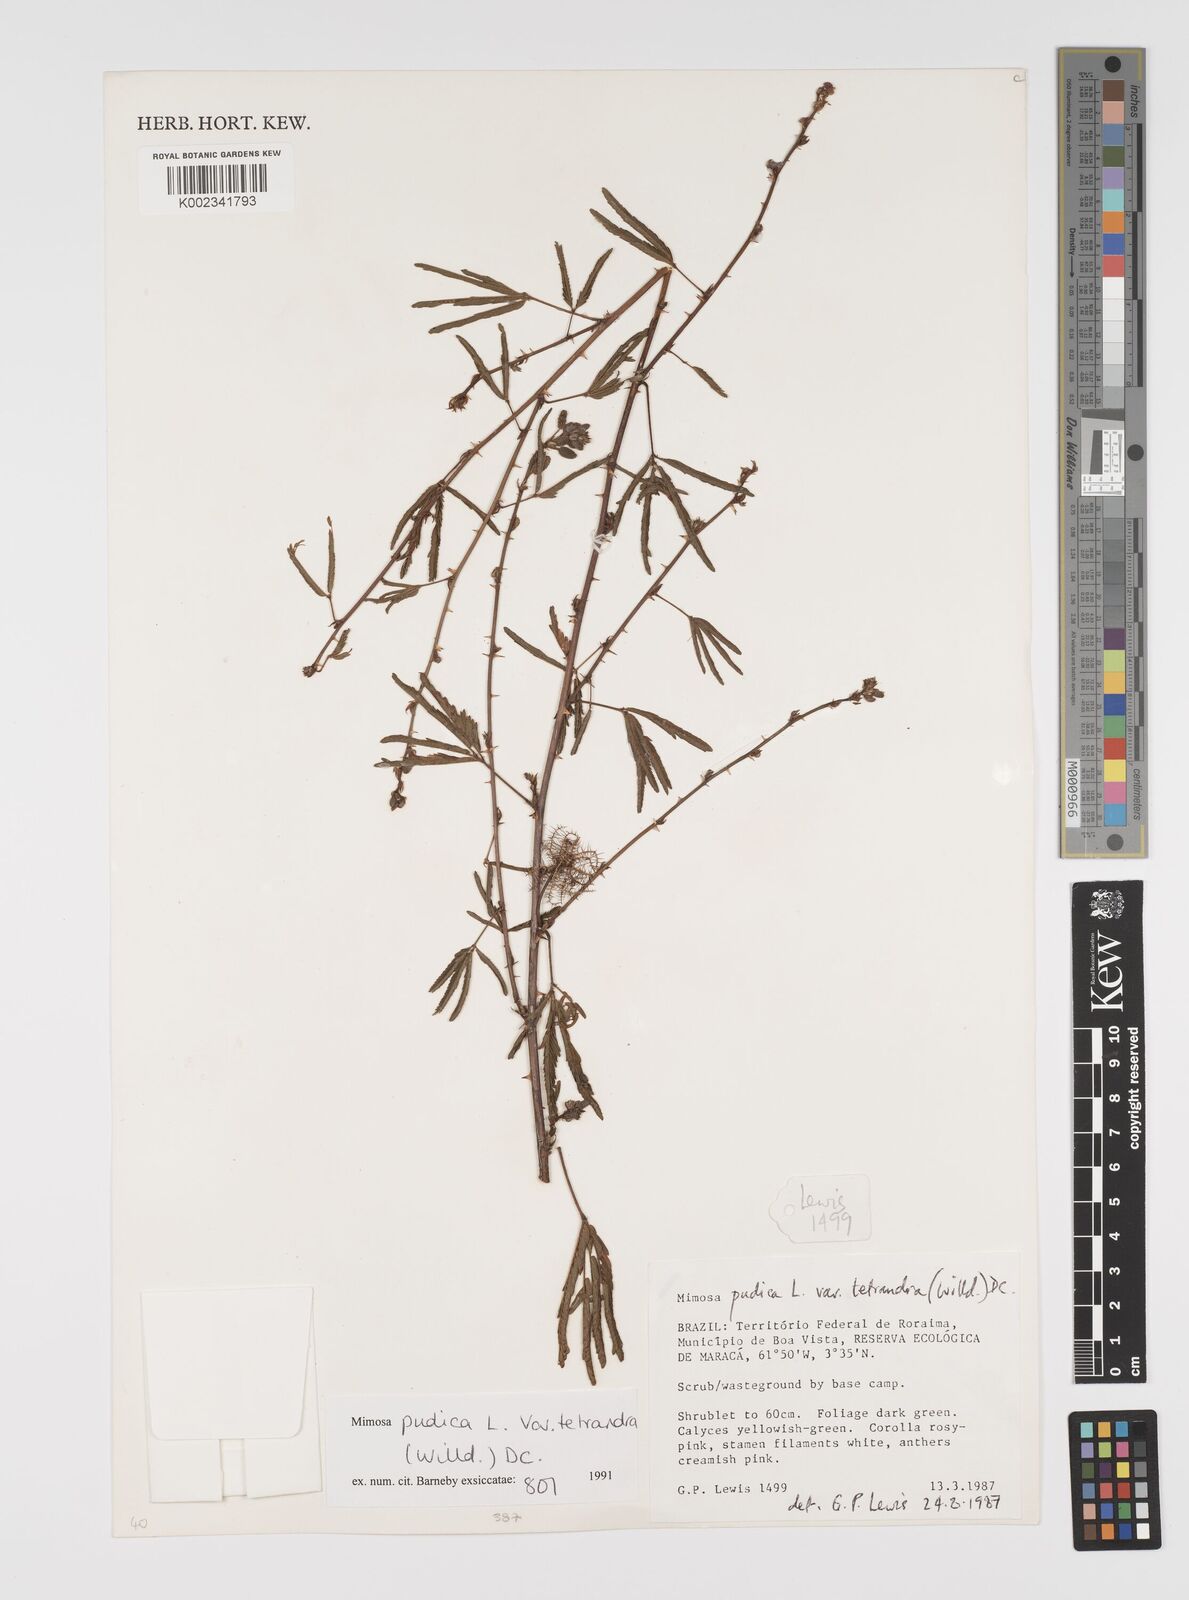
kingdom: Plantae
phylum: Tracheophyta
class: Magnoliopsida
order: Fabales
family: Fabaceae
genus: Mimosa
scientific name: Mimosa pudica
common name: Sensitive plant
